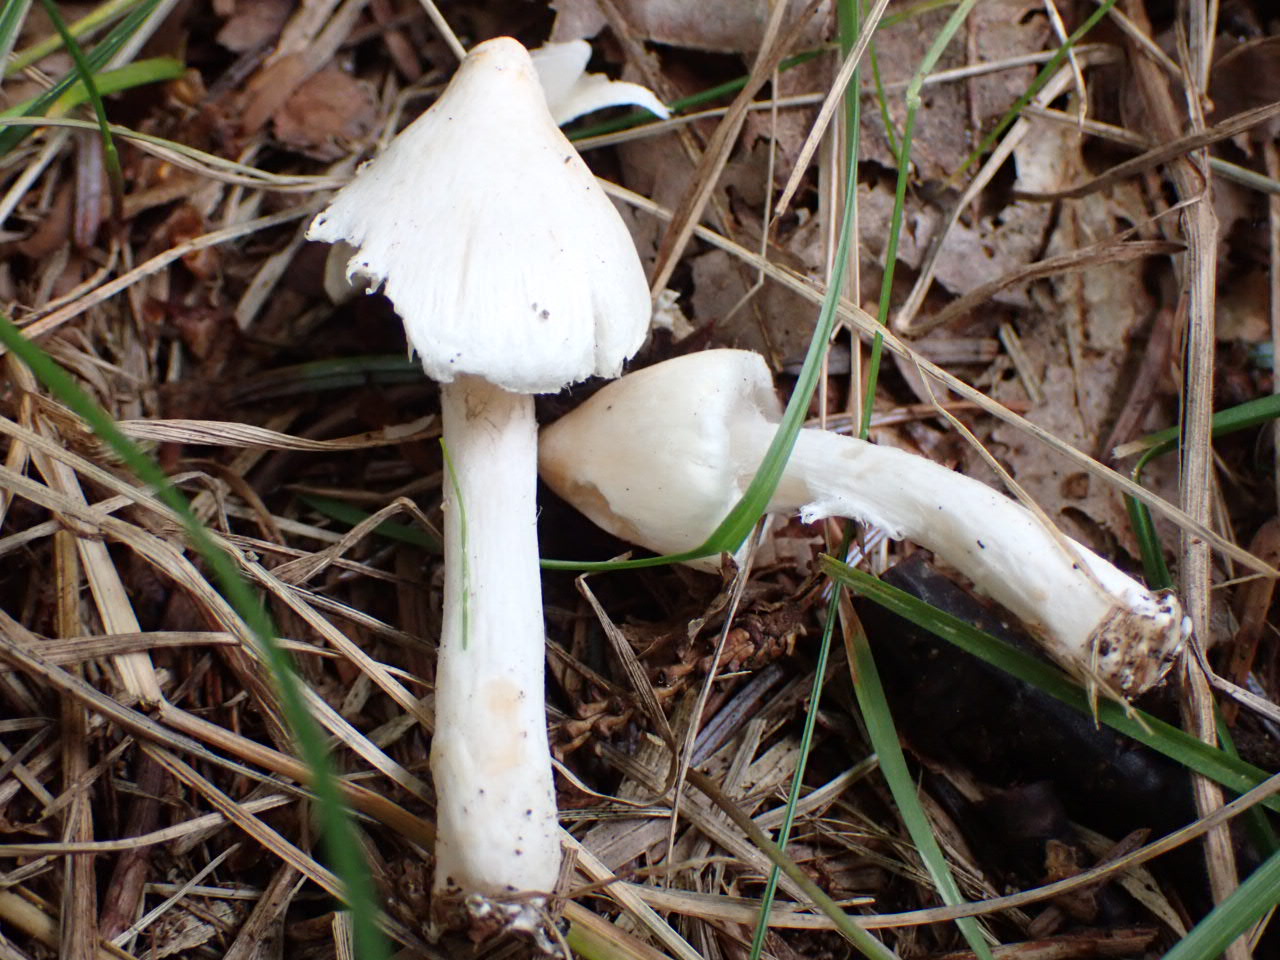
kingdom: Fungi
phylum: Basidiomycota
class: Agaricomycetes
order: Agaricales
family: Inocybaceae
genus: Inocybe
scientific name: Inocybe
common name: almindelig trævlhat
